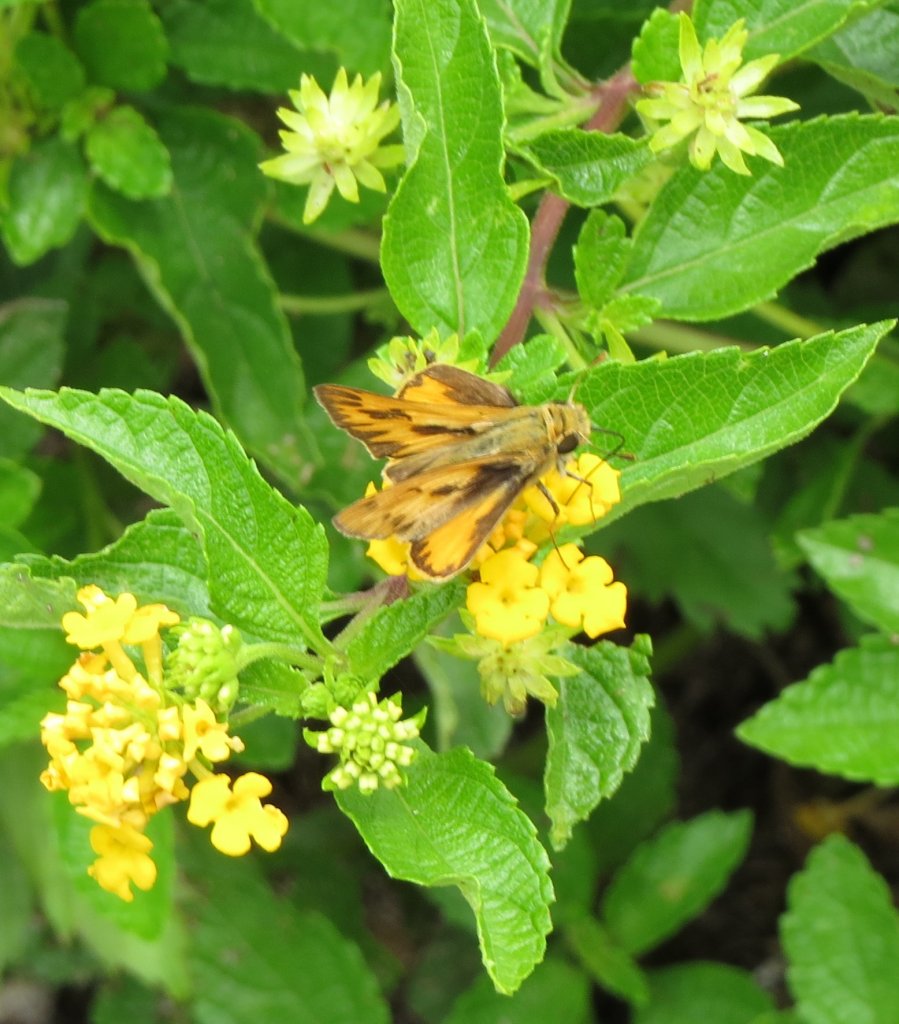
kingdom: Animalia
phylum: Arthropoda
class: Insecta
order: Lepidoptera
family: Hesperiidae
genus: Hylephila
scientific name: Hylephila phyleus
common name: Fiery Skipper
